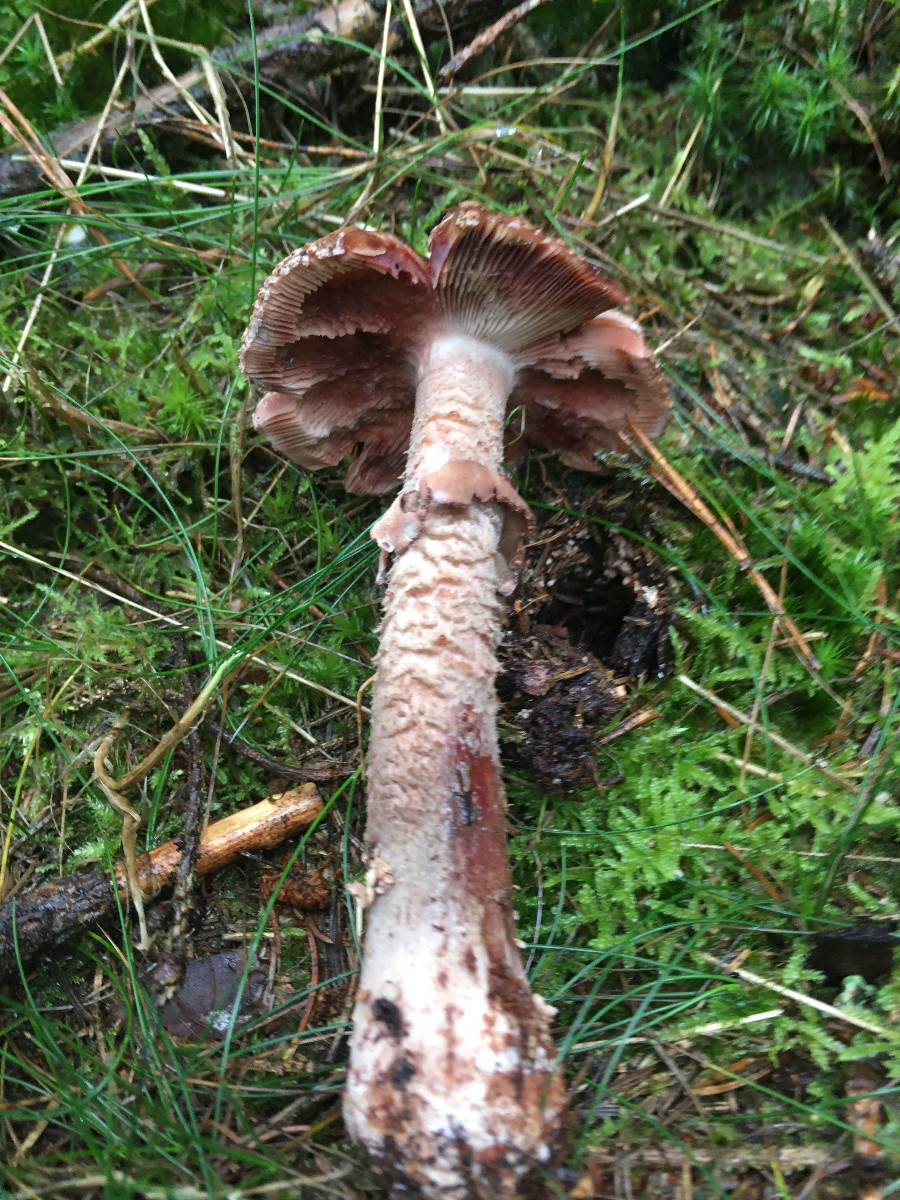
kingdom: Fungi
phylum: Basidiomycota
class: Agaricomycetes
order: Agaricales
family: Amanitaceae
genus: Amanita
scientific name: Amanita rubescens
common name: rødmende fluesvamp
